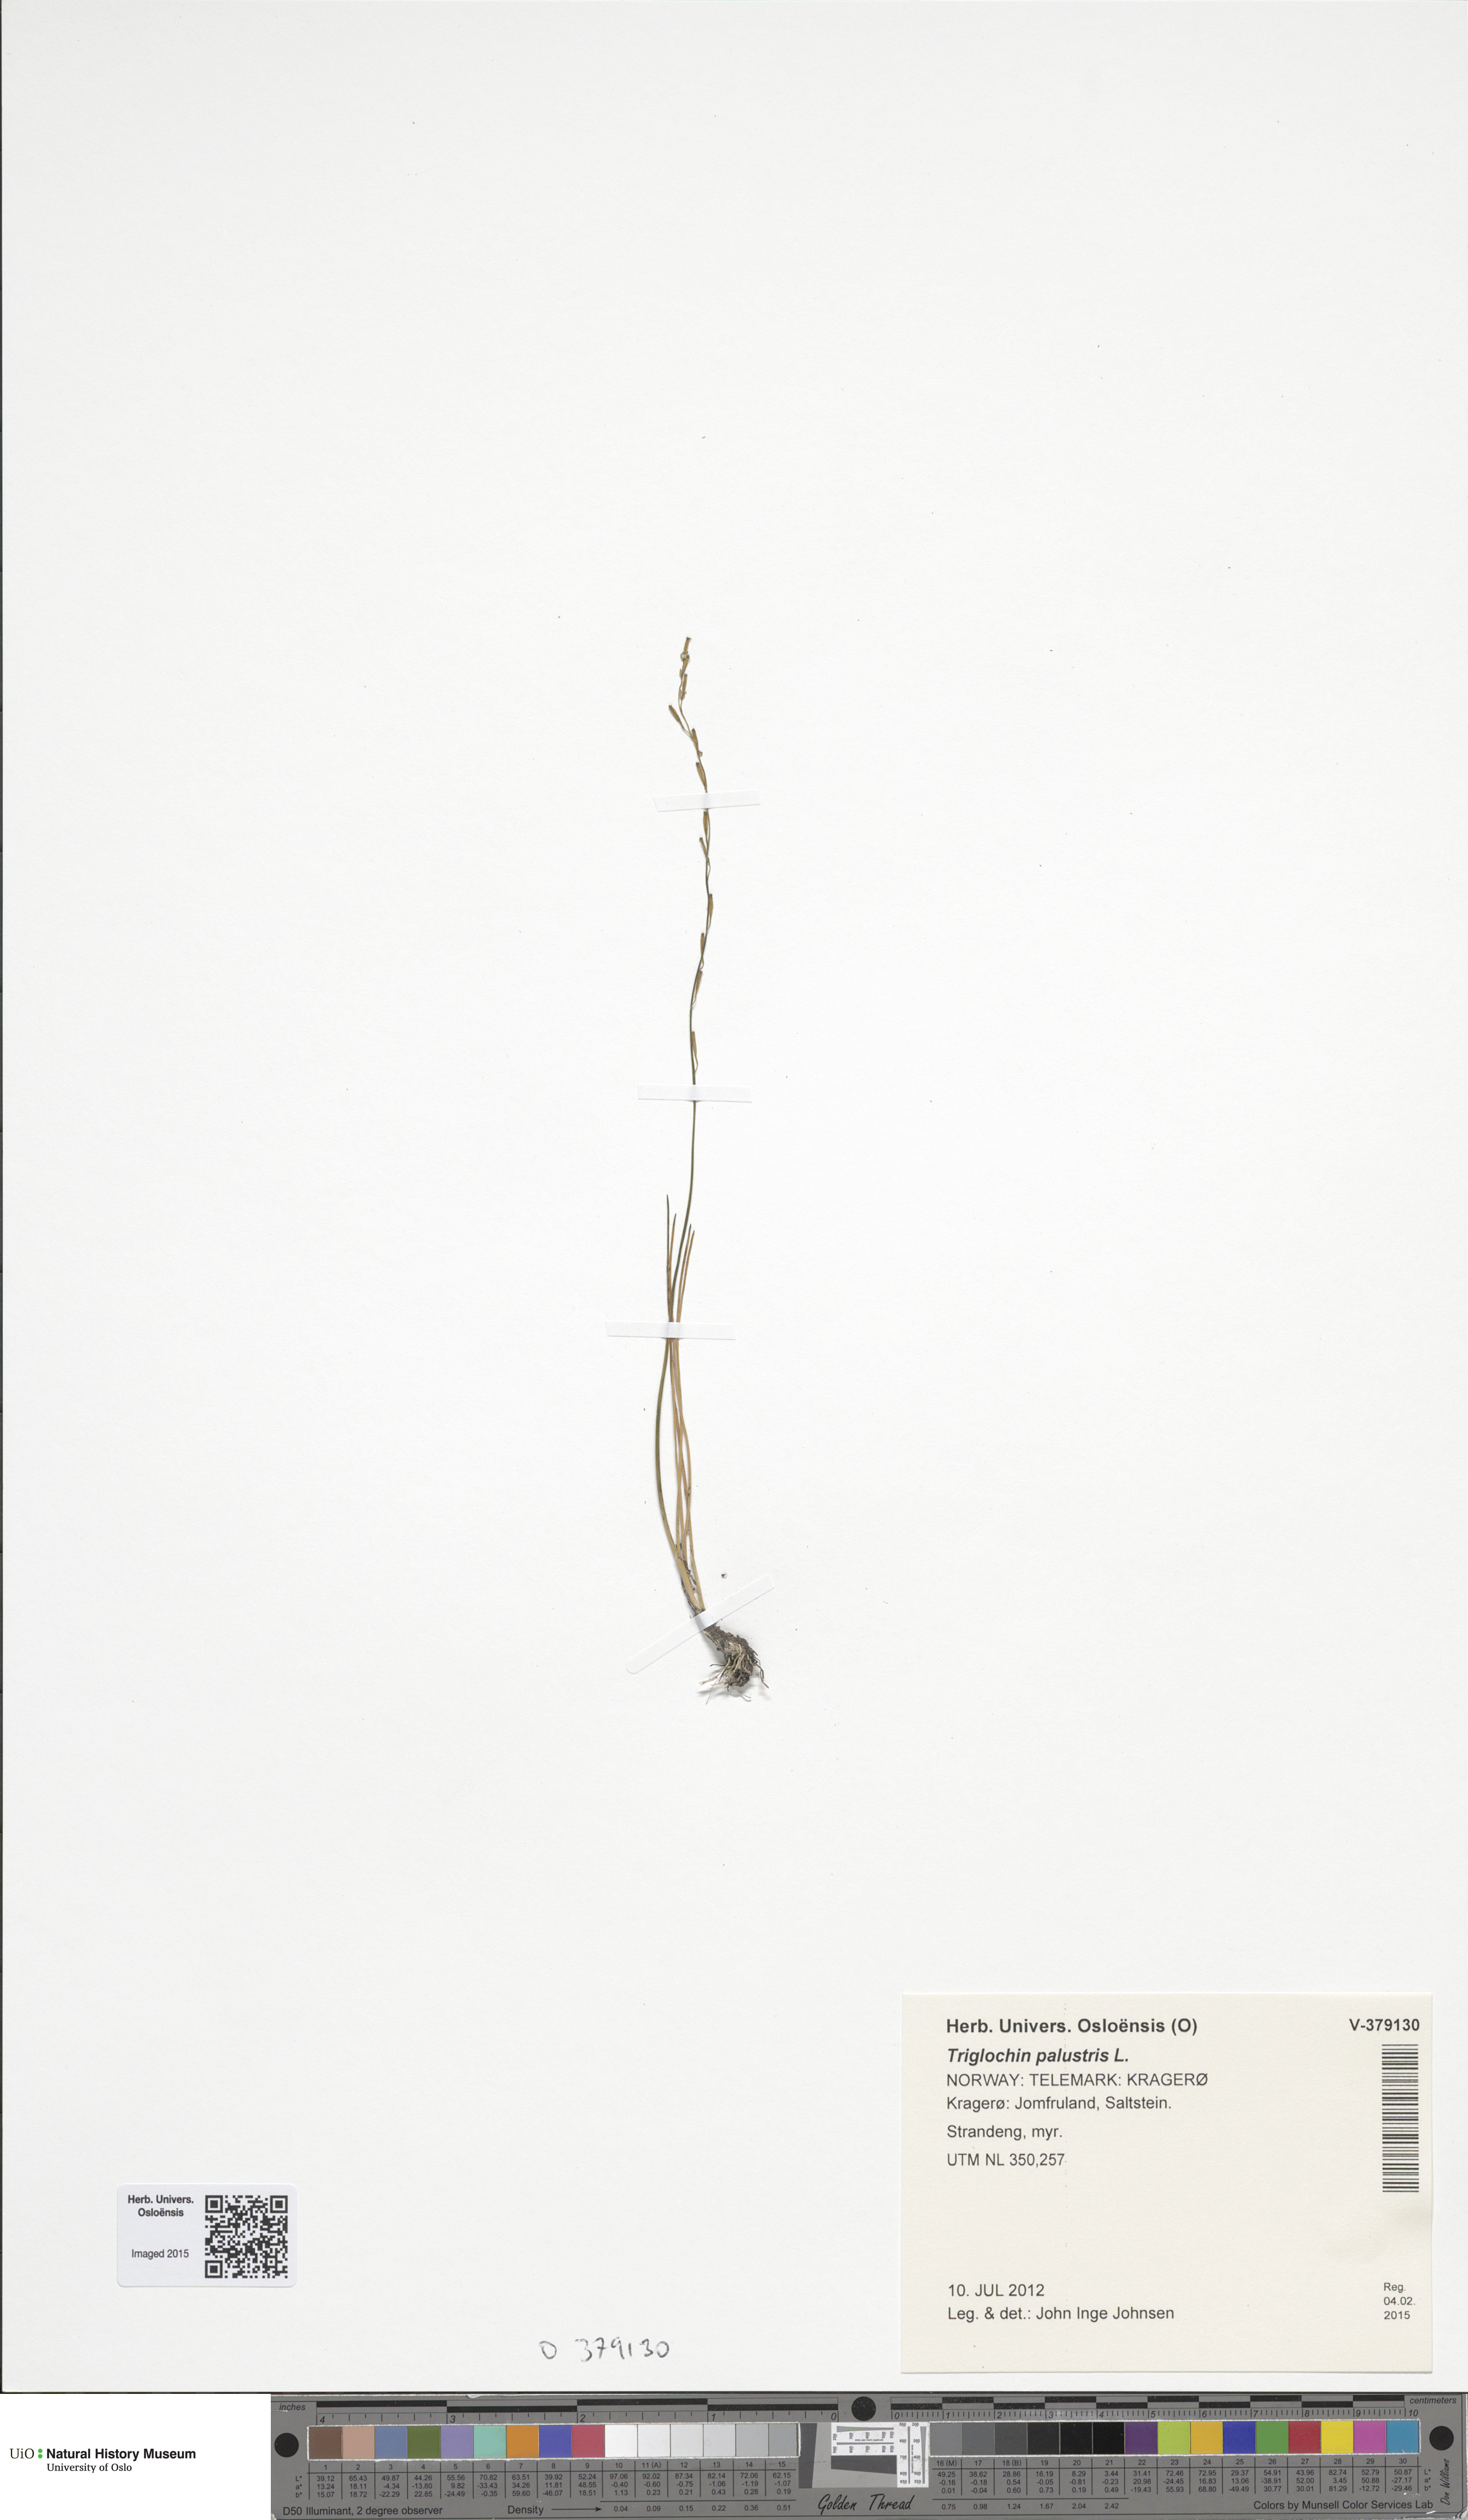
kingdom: Plantae
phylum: Tracheophyta
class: Liliopsida
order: Alismatales
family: Juncaginaceae
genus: Triglochin
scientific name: Triglochin palustris
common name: Marsh arrowgrass
